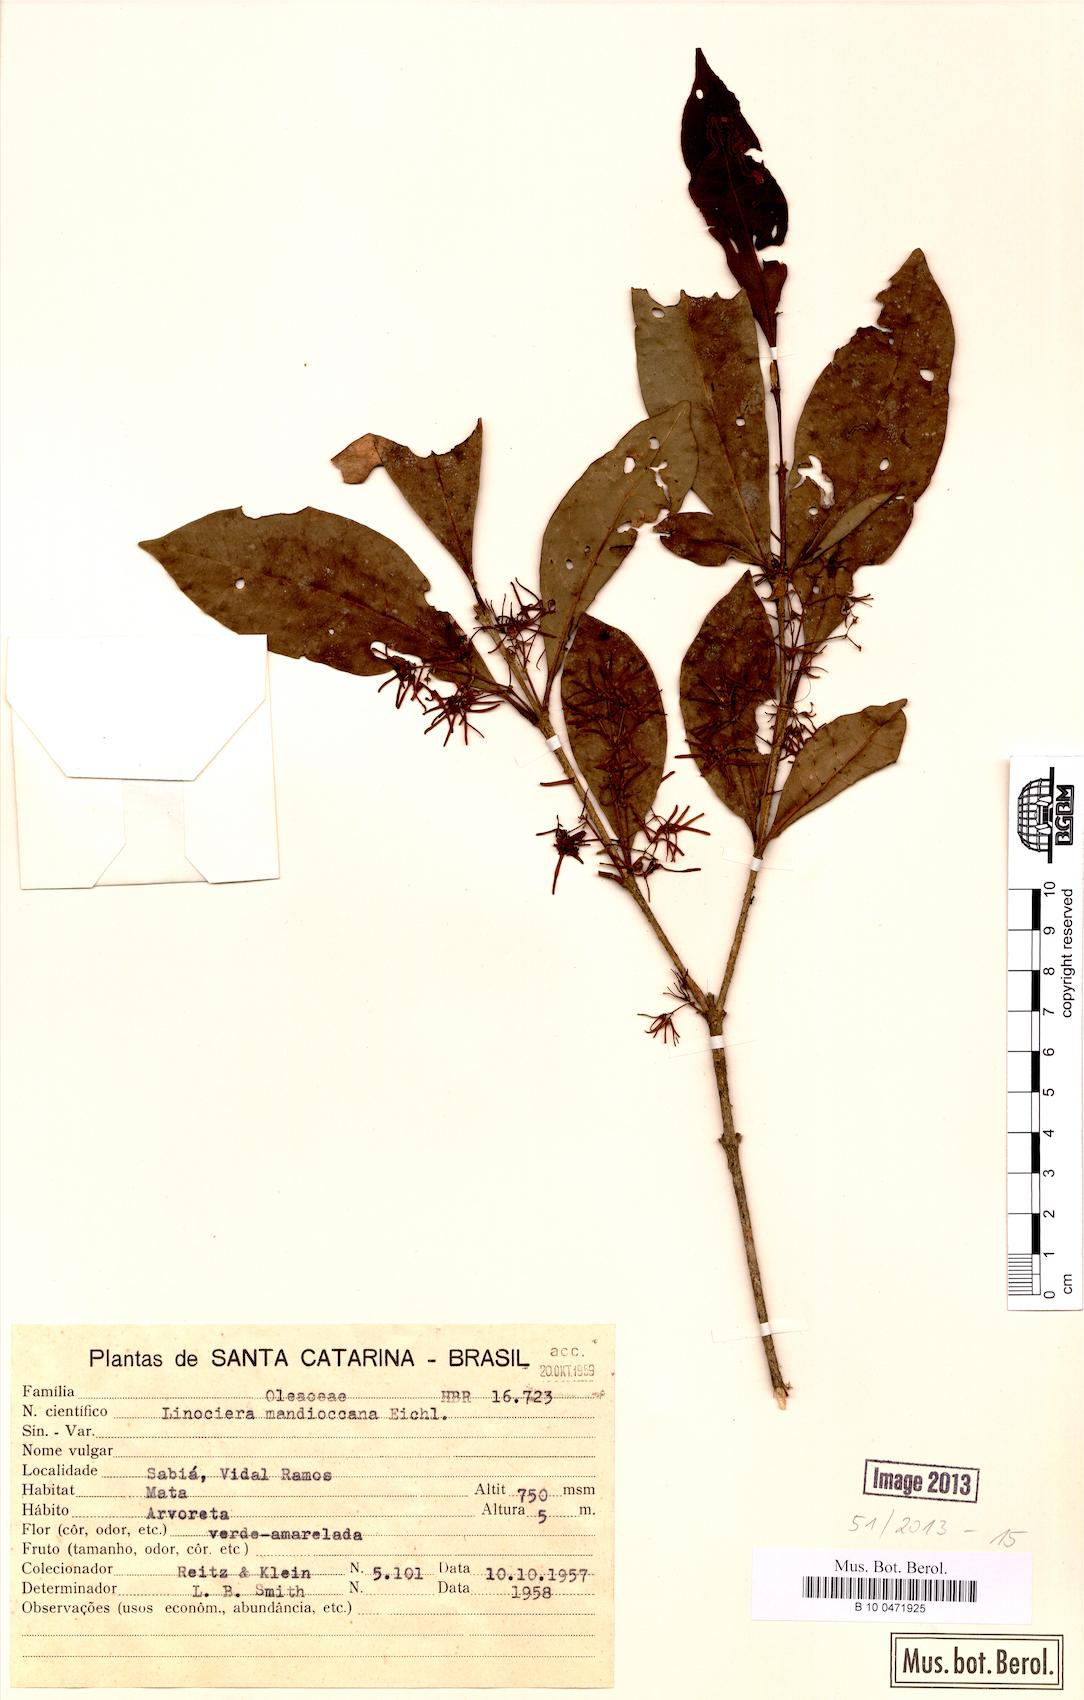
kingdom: Plantae
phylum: Tracheophyta
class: Magnoliopsida
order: Lamiales
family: Oleaceae
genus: Chionanthus
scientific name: Chionanthus filiformis
